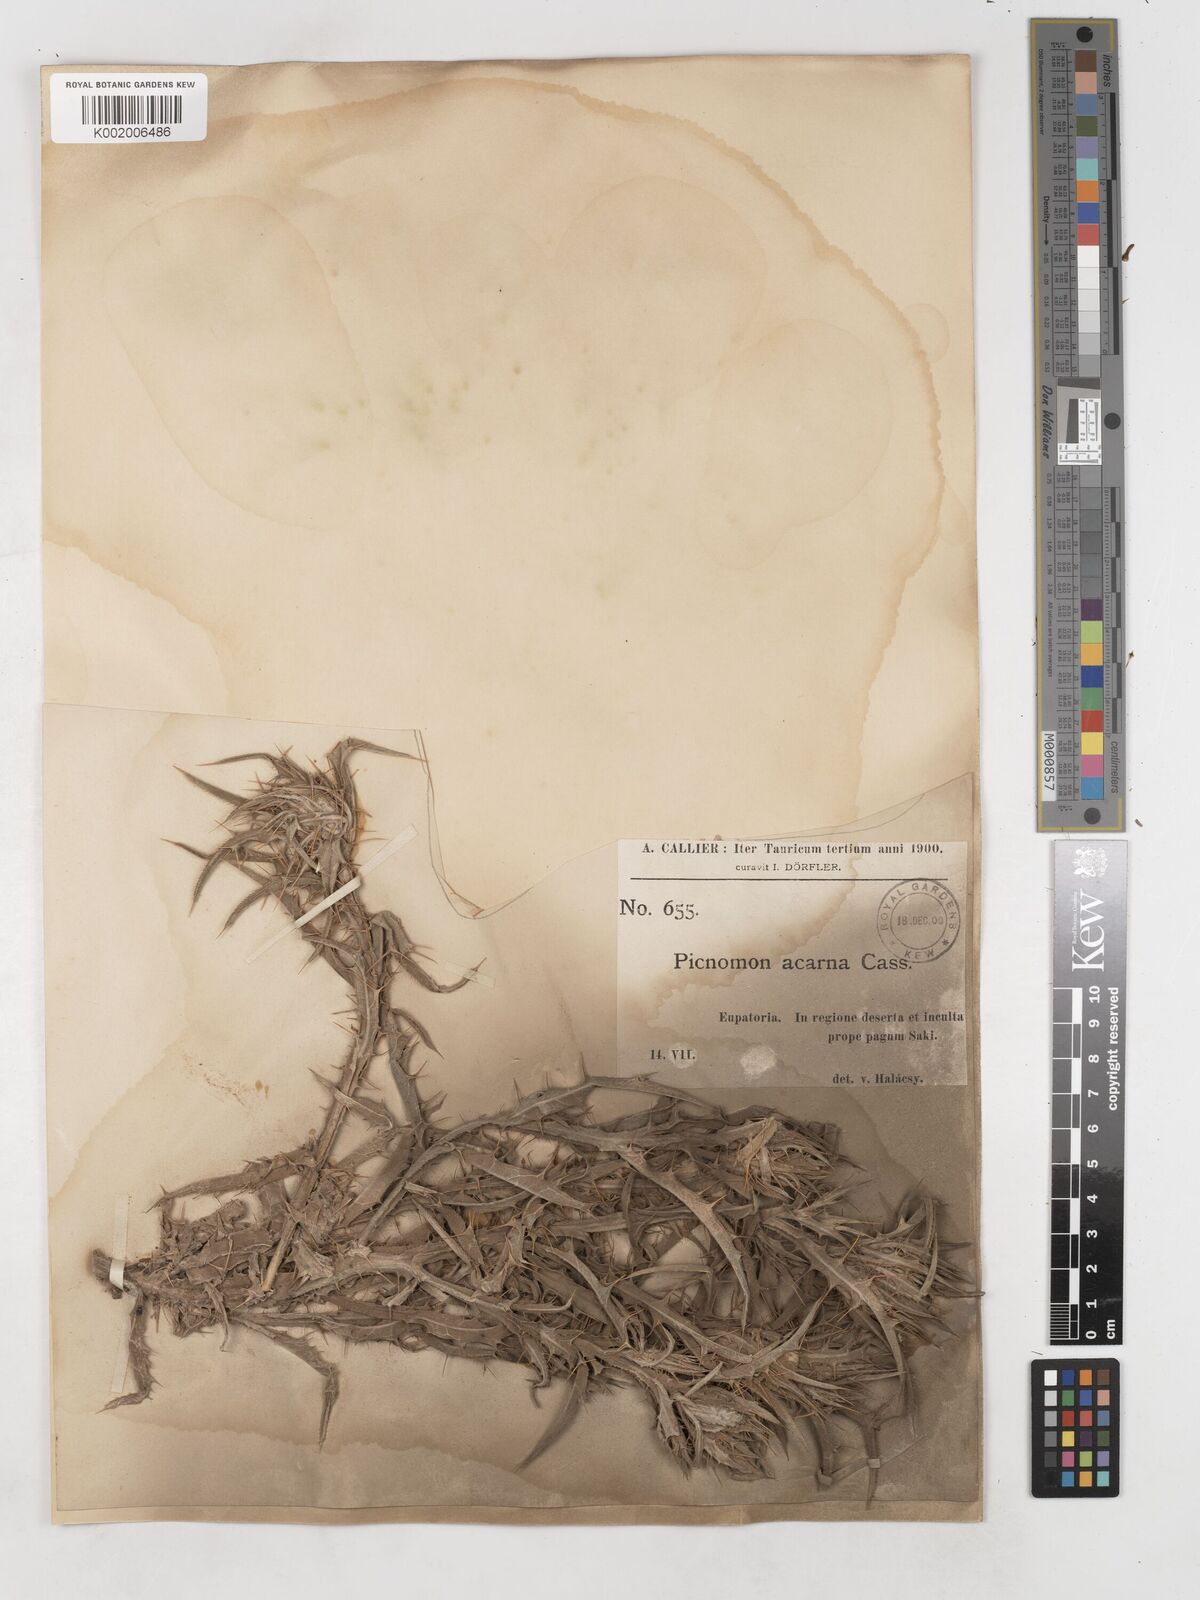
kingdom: Plantae
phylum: Tracheophyta
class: Magnoliopsida
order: Asterales
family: Asteraceae
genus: Picnomon
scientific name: Picnomon acarna
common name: Soldier thistle
